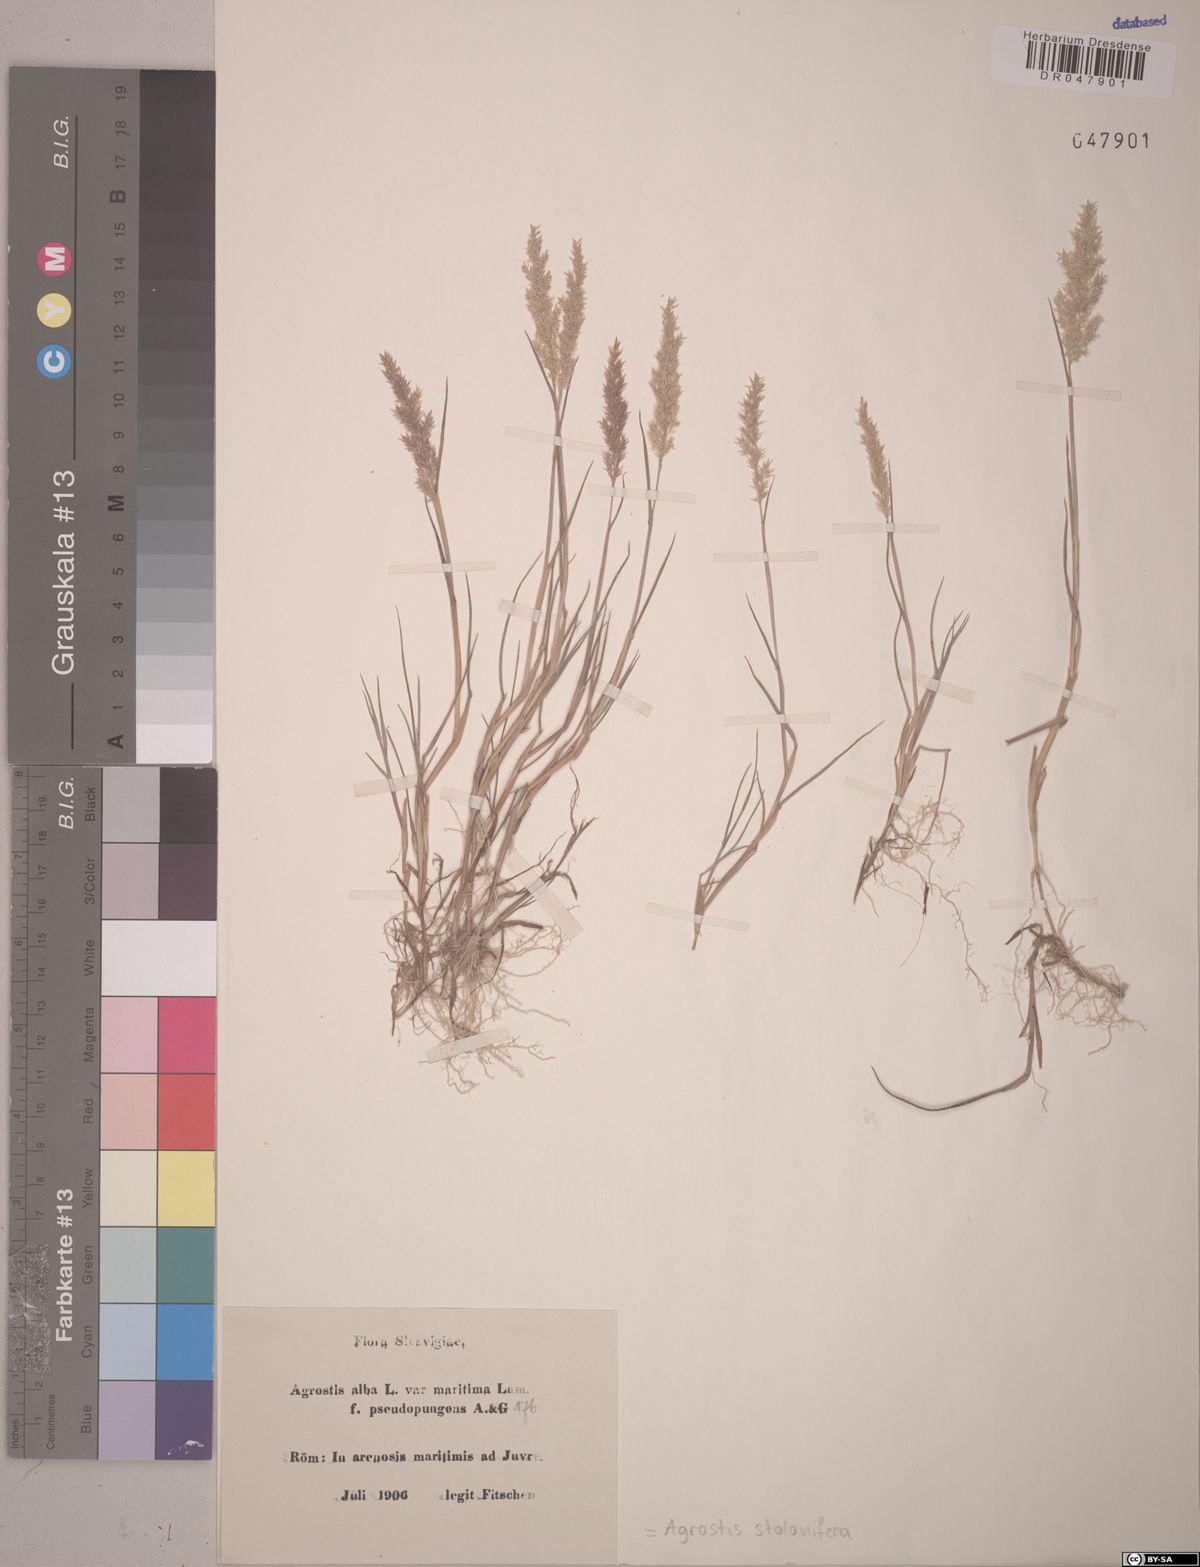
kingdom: Plantae
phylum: Tracheophyta
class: Liliopsida
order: Poales
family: Poaceae
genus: Agrostis
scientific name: Agrostis stolonifera
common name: Creeping bentgrass
